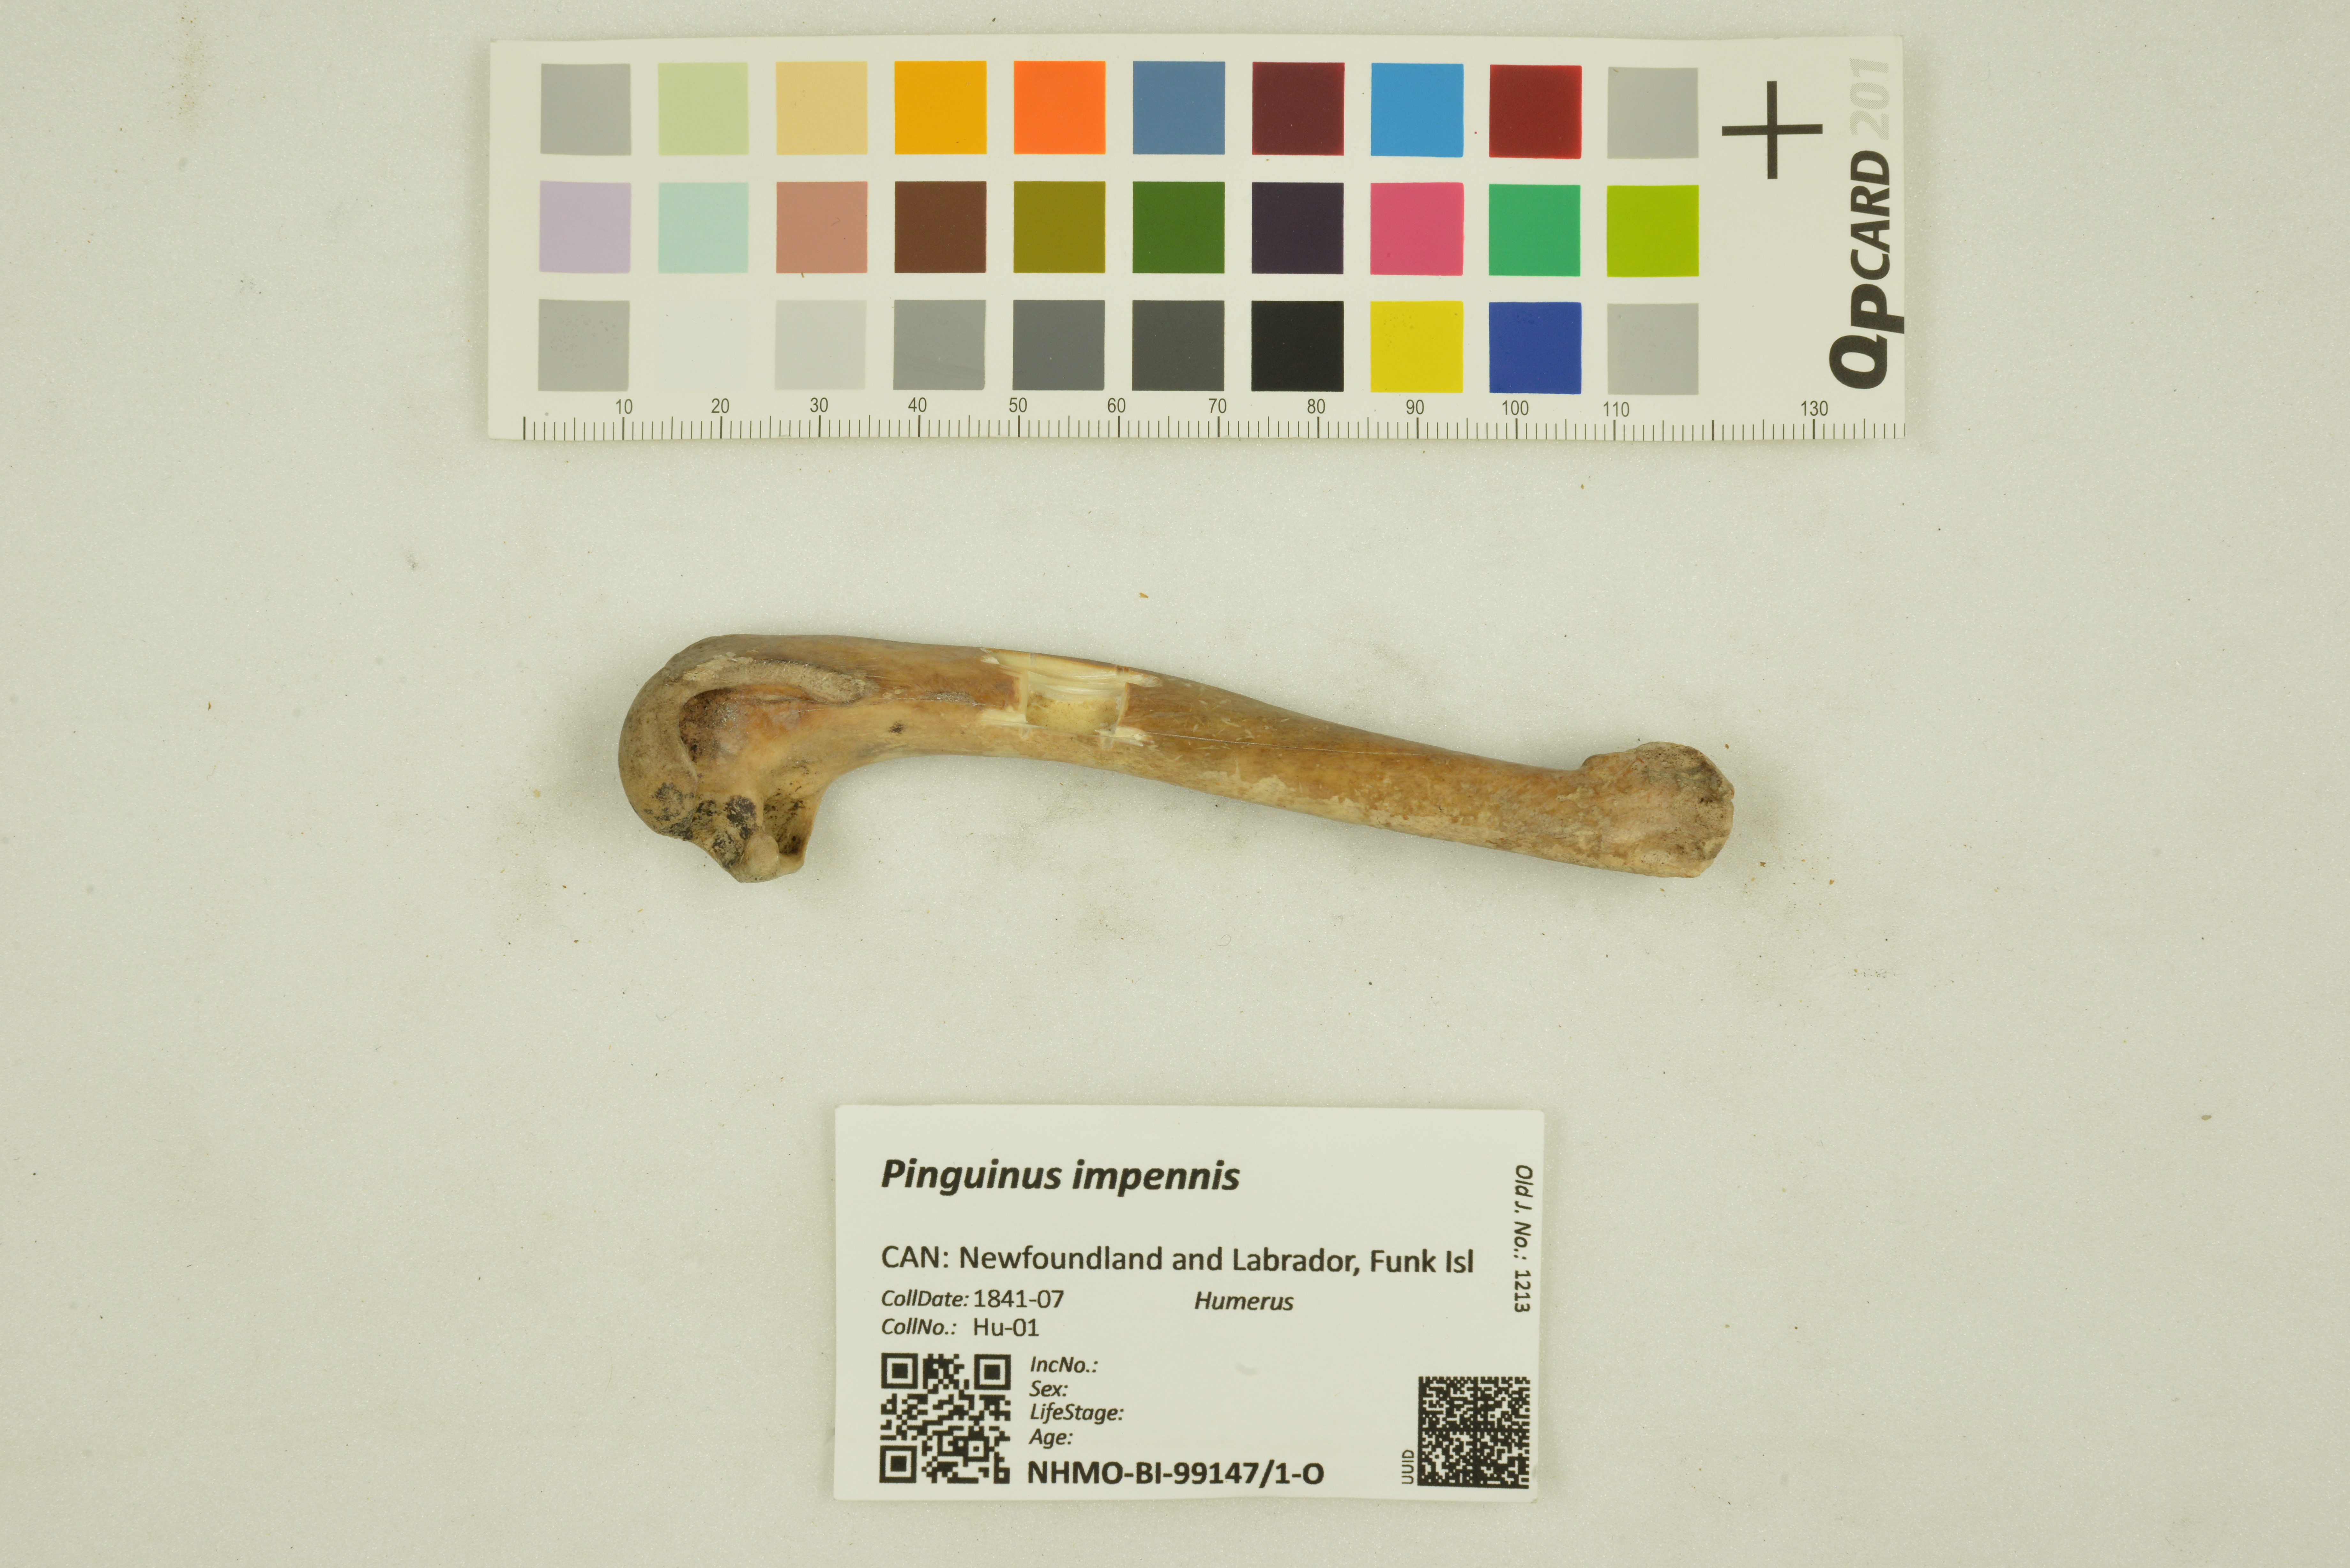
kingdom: Animalia
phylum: Chordata
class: Aves
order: Charadriiformes
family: Alcidae
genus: Pinguinus
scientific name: Pinguinus impennis
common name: Great auk
